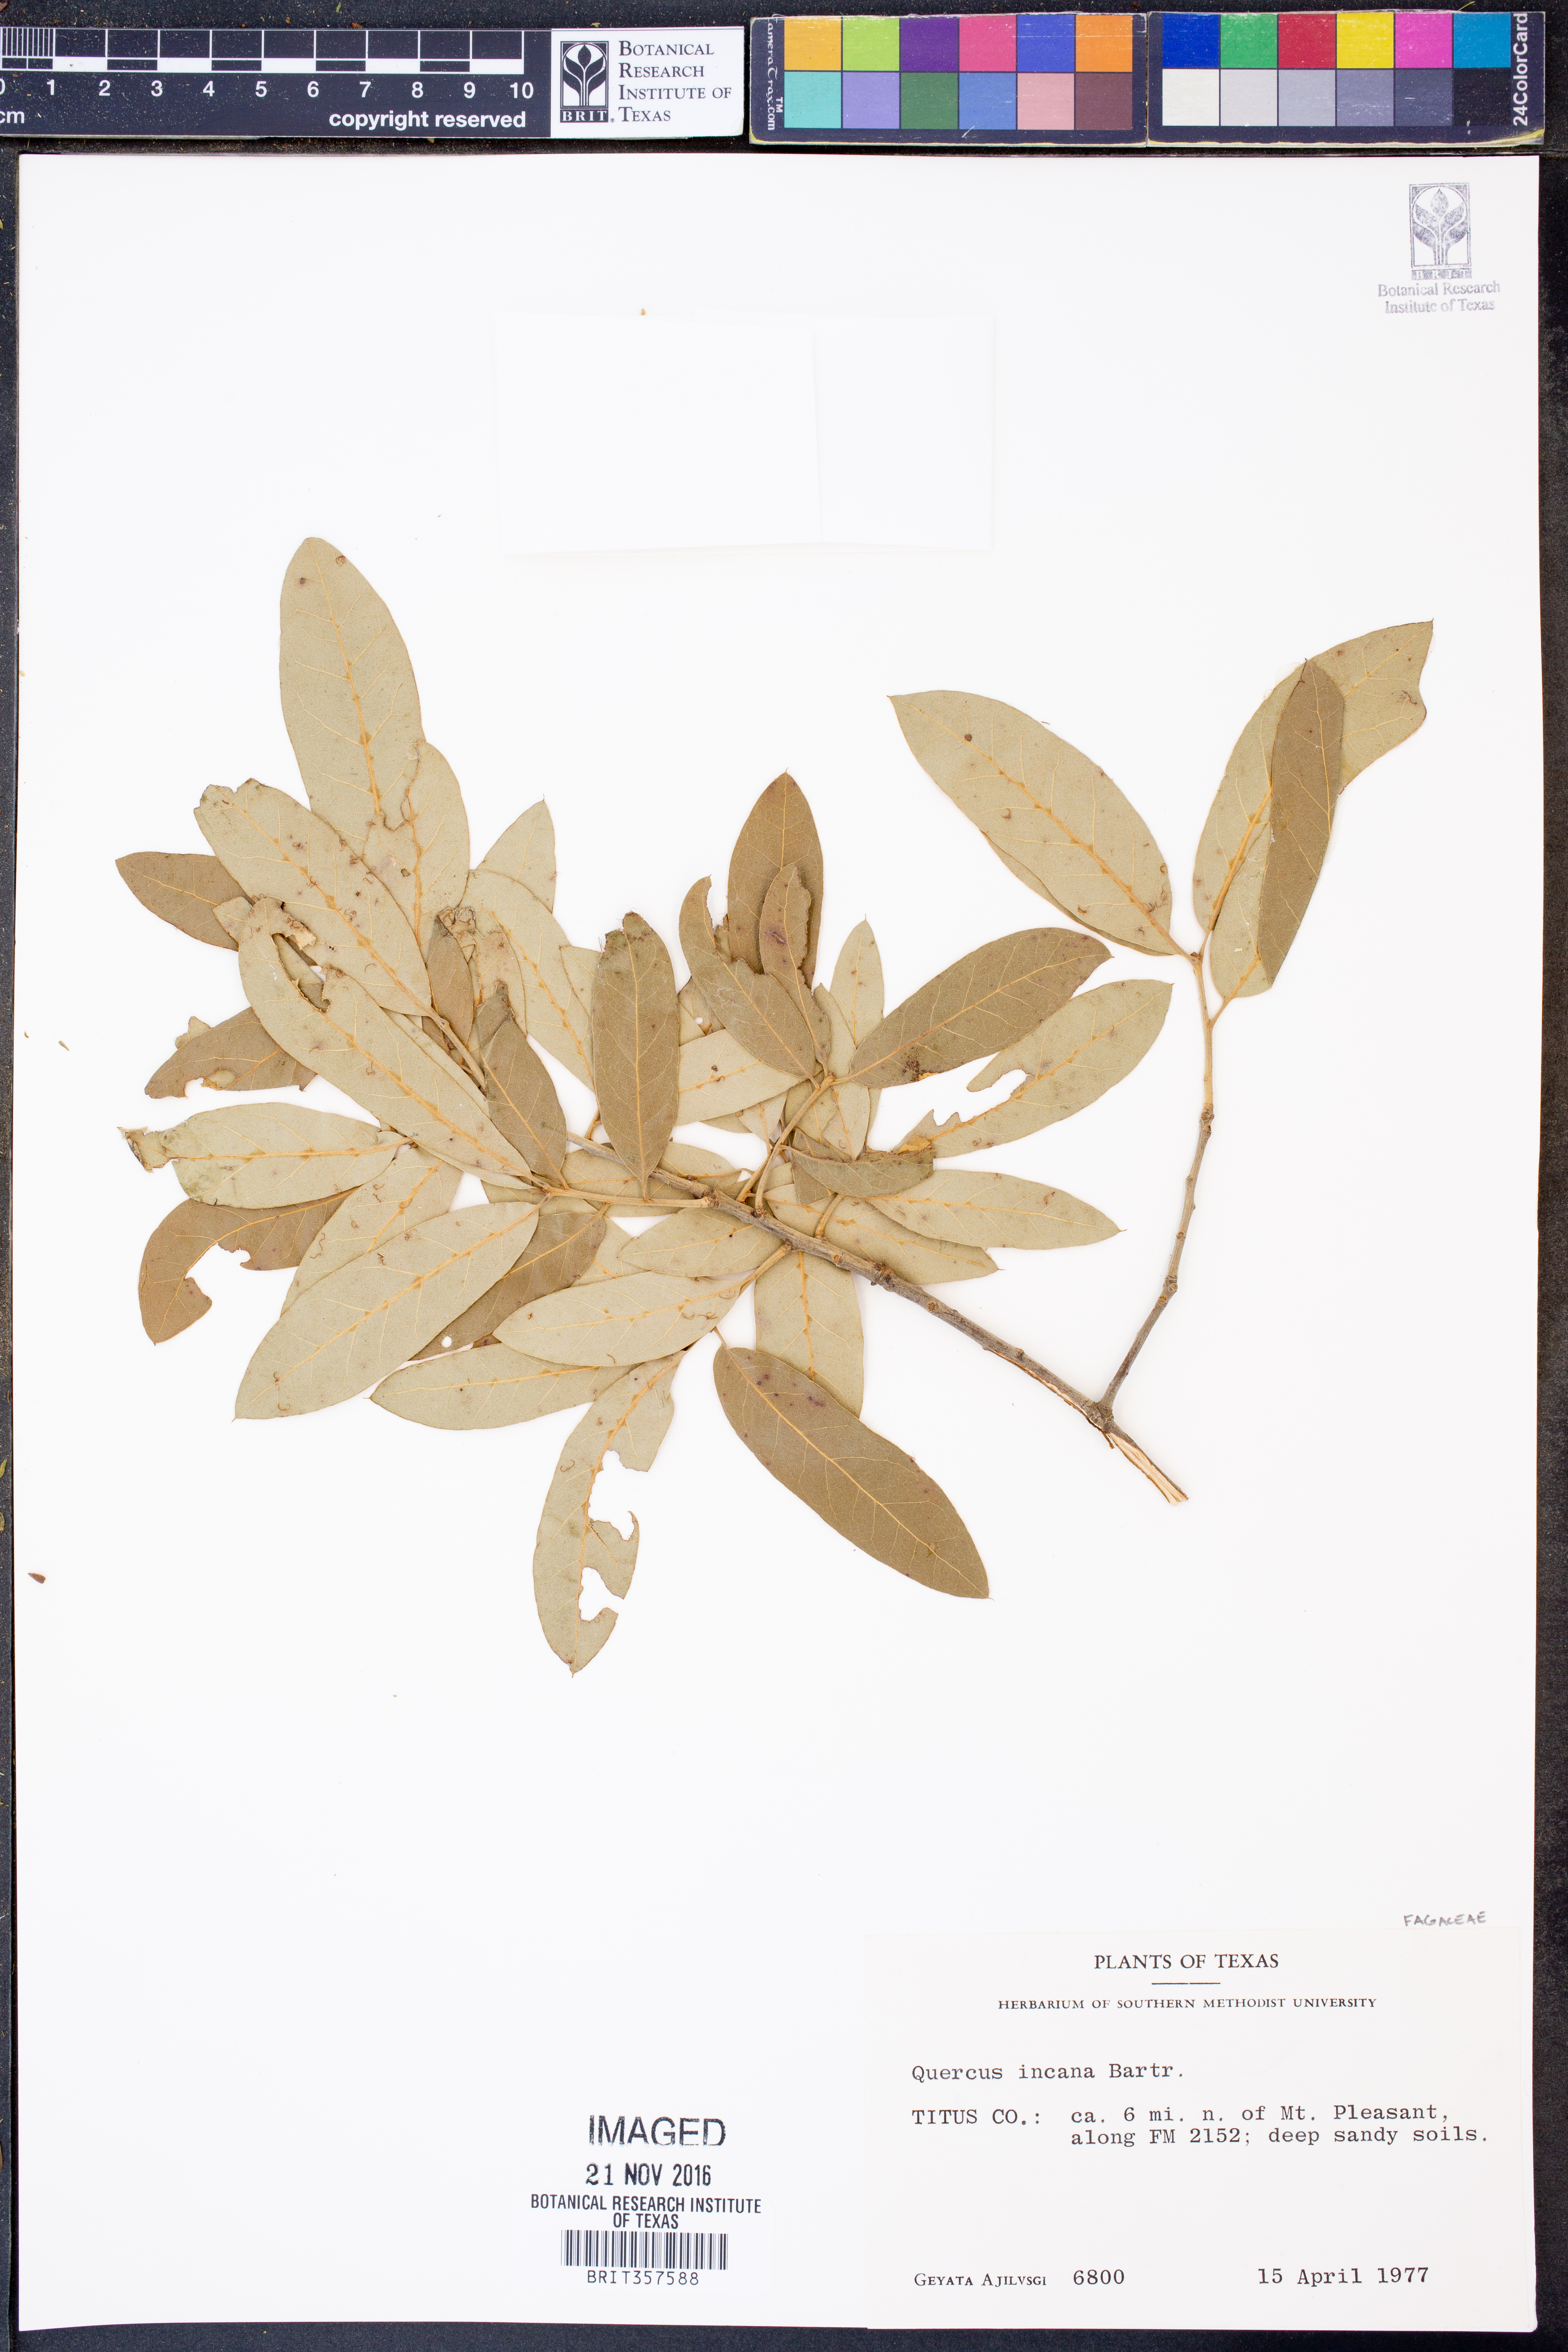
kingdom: Plantae
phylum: Tracheophyta
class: Magnoliopsida
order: Fagales
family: Fagaceae
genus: Quercus
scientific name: Quercus incana
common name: Bluejack oak
